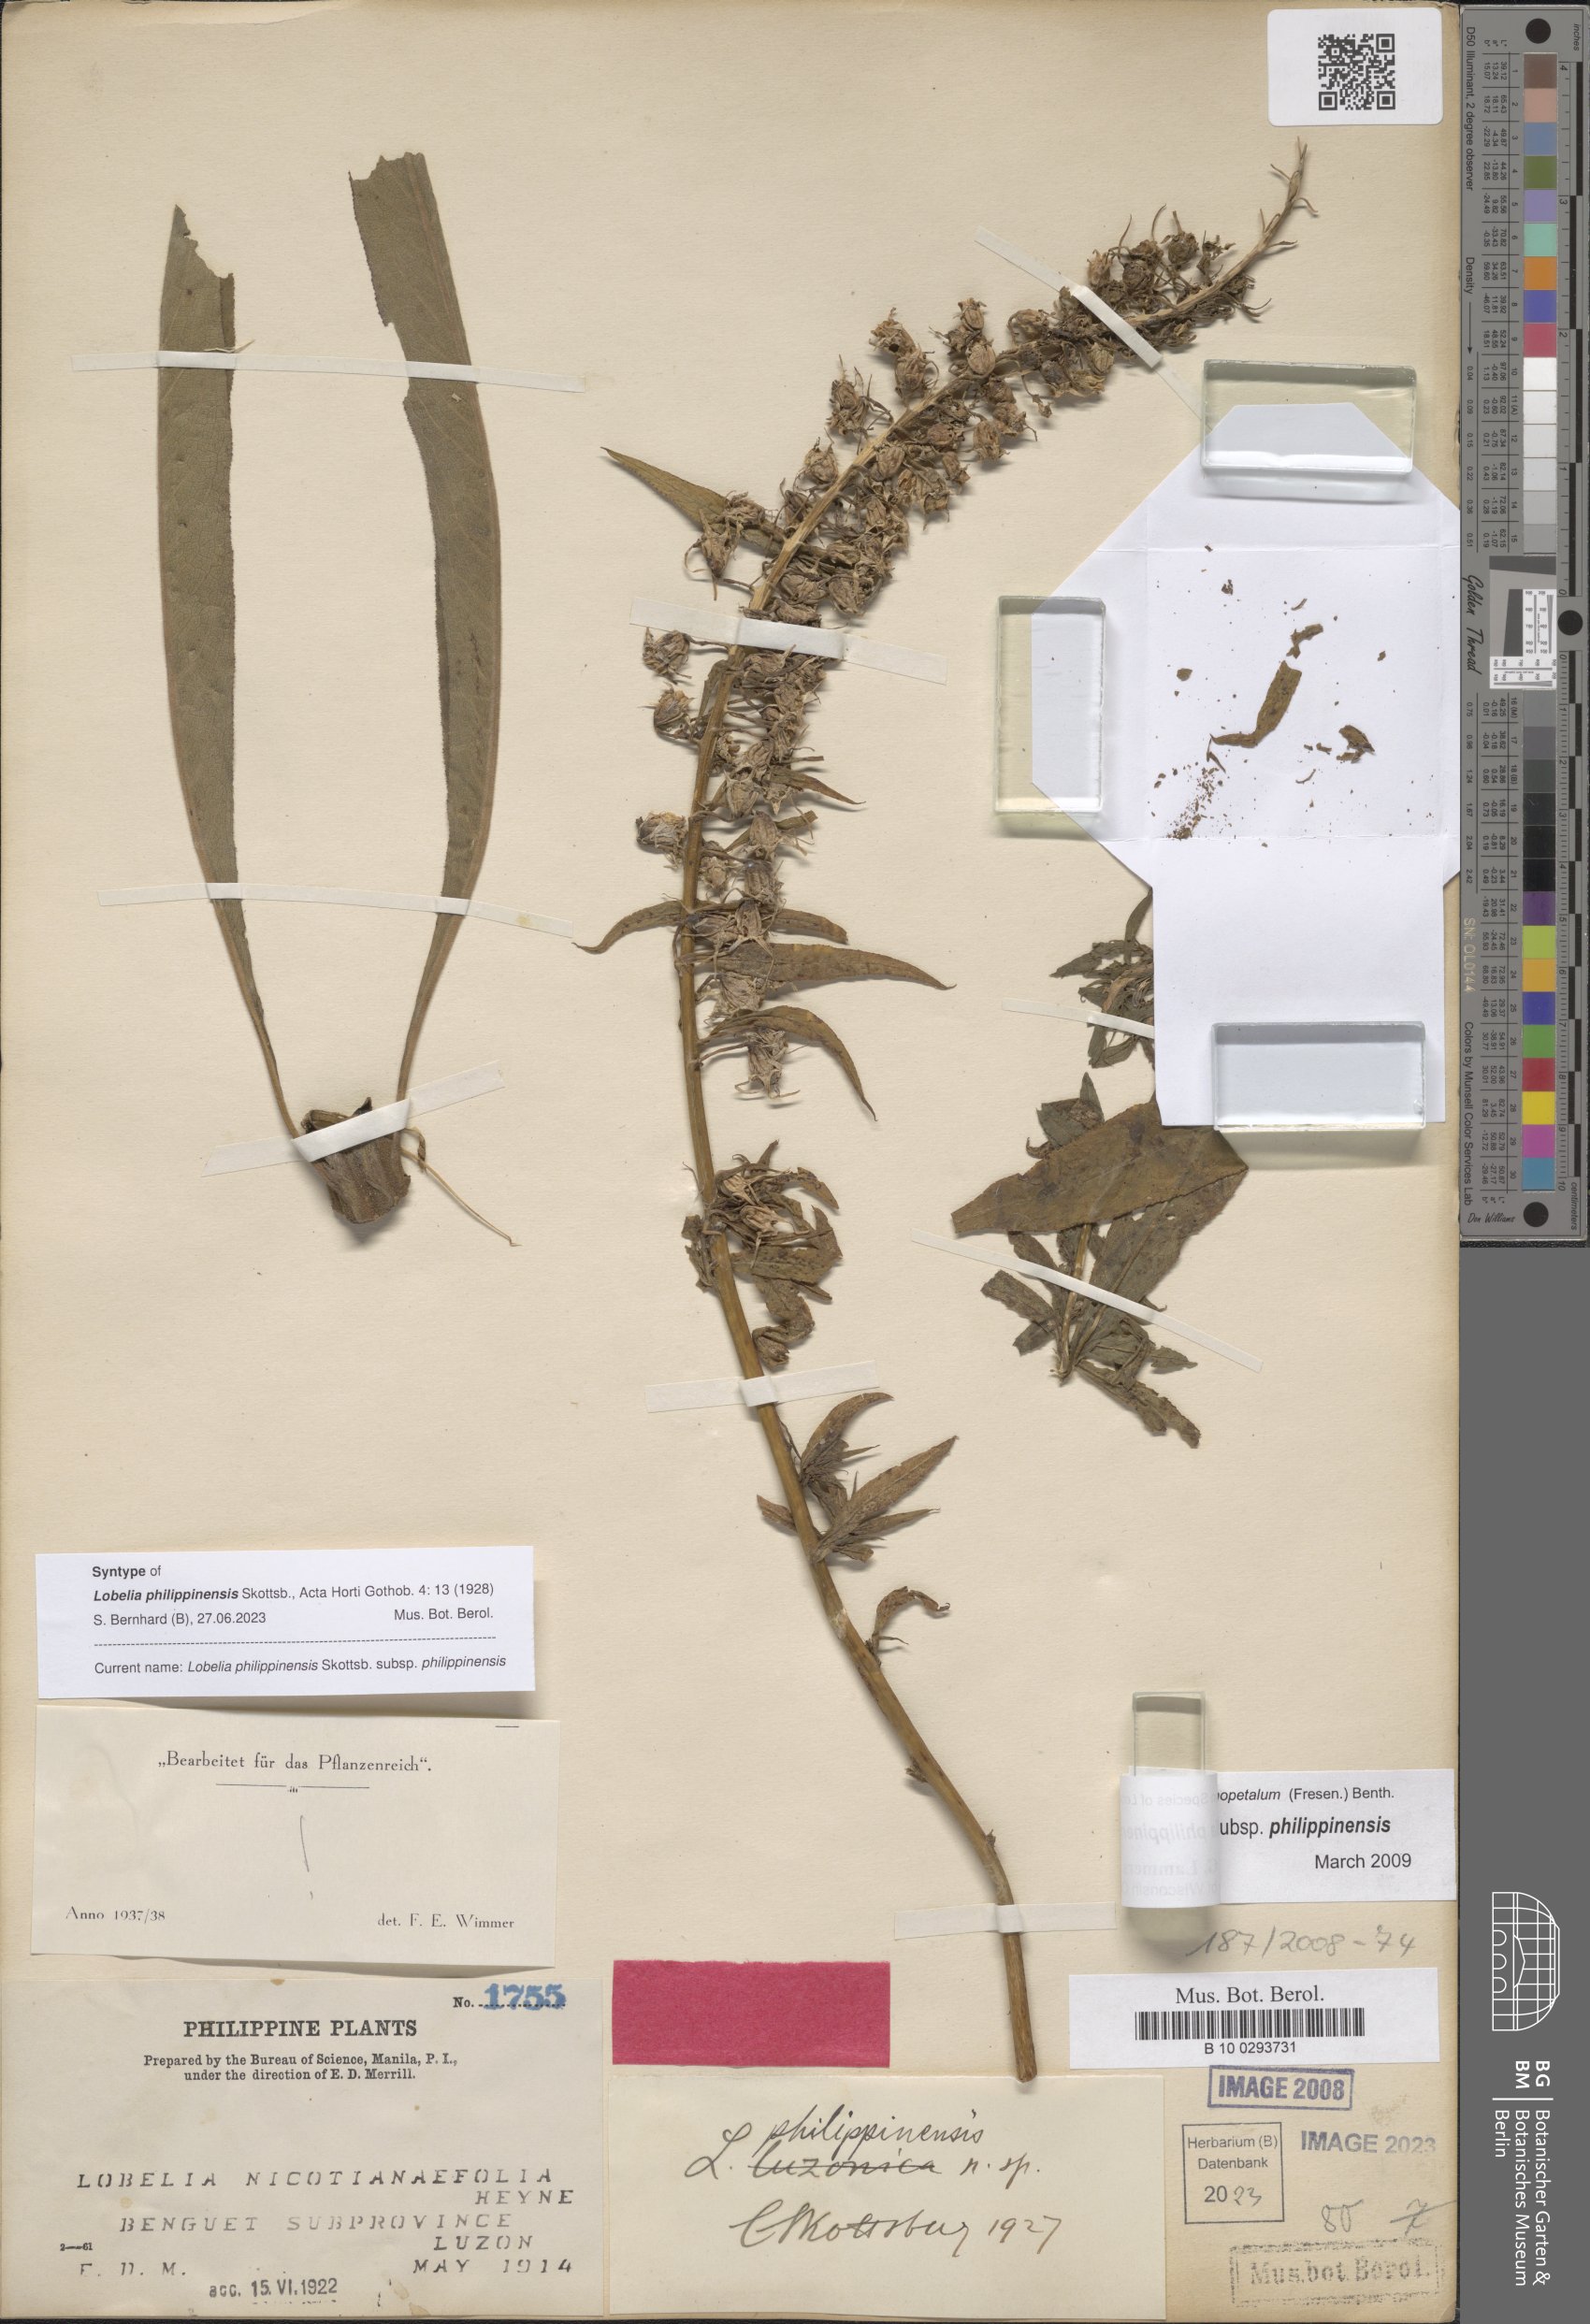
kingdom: Plantae
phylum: Tracheophyta
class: Magnoliopsida
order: Asterales
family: Campanulaceae
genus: Lobelia
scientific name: Lobelia philippinensis
